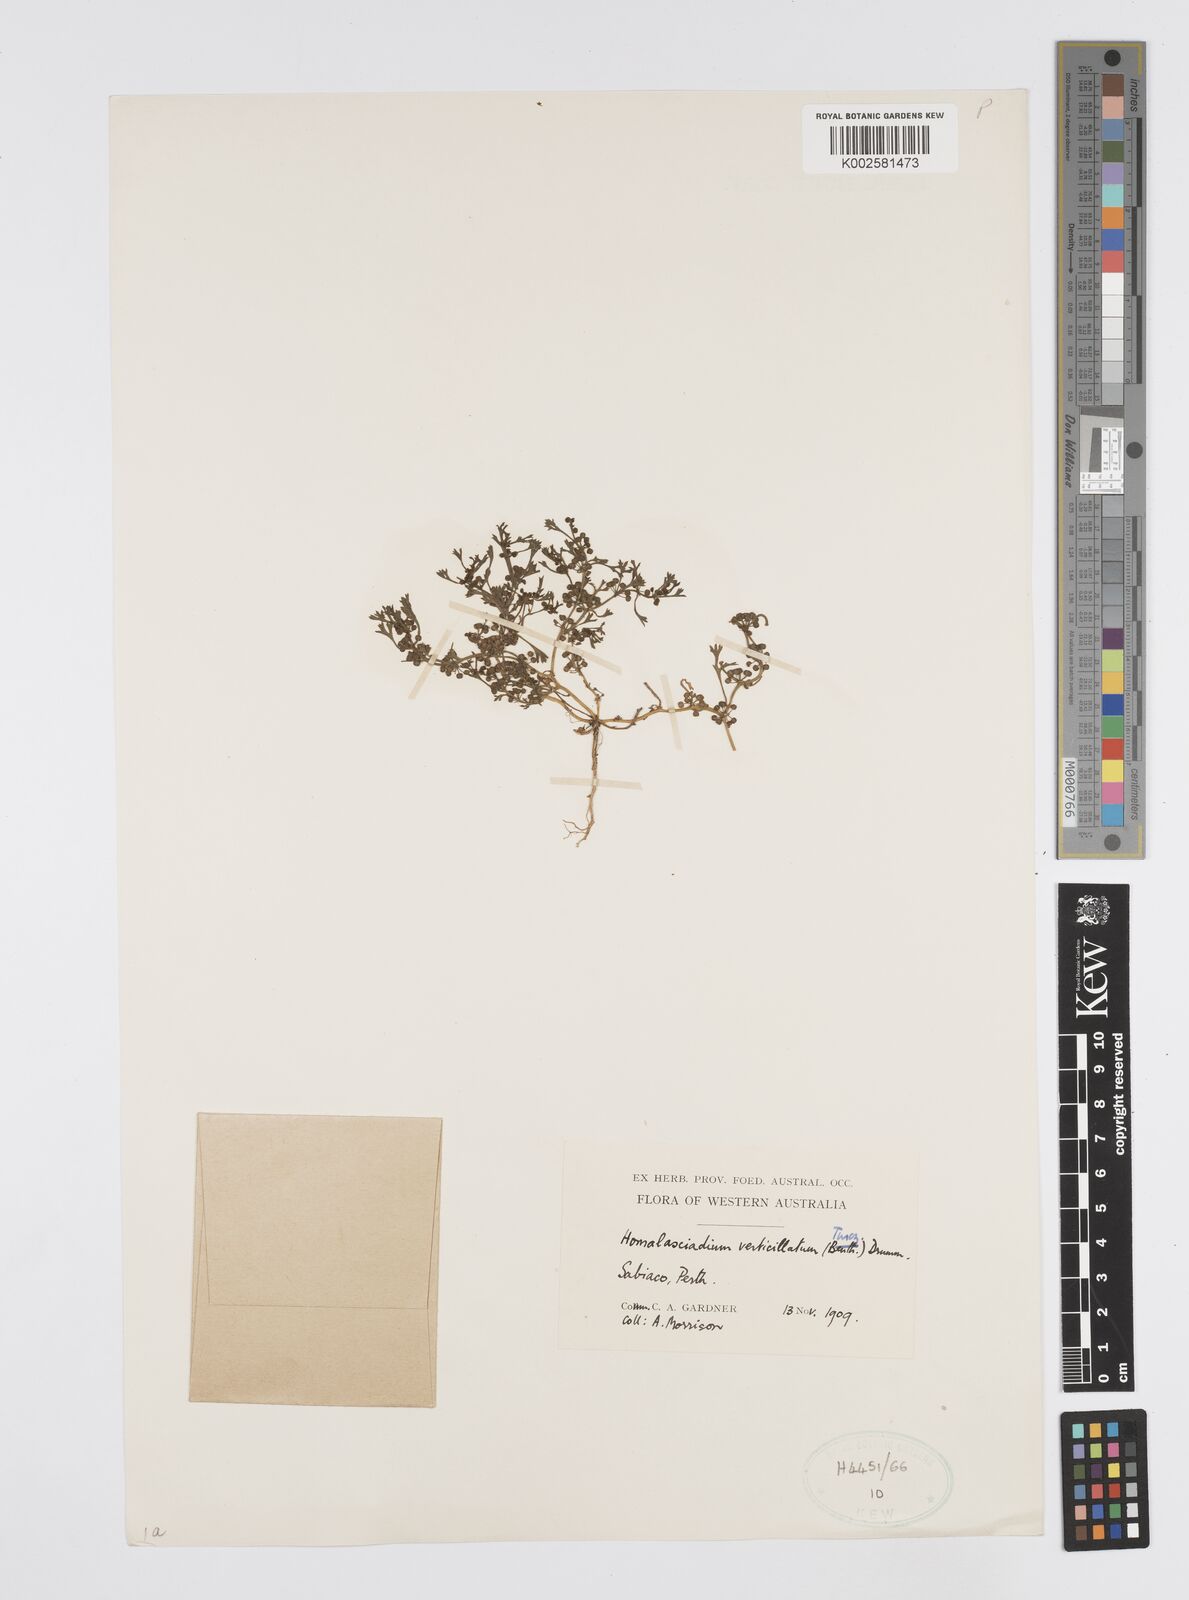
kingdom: Plantae
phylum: Tracheophyta
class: Magnoliopsida
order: Apiales
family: Apiaceae
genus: Homalosciadium
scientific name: Homalosciadium homalocarpum
